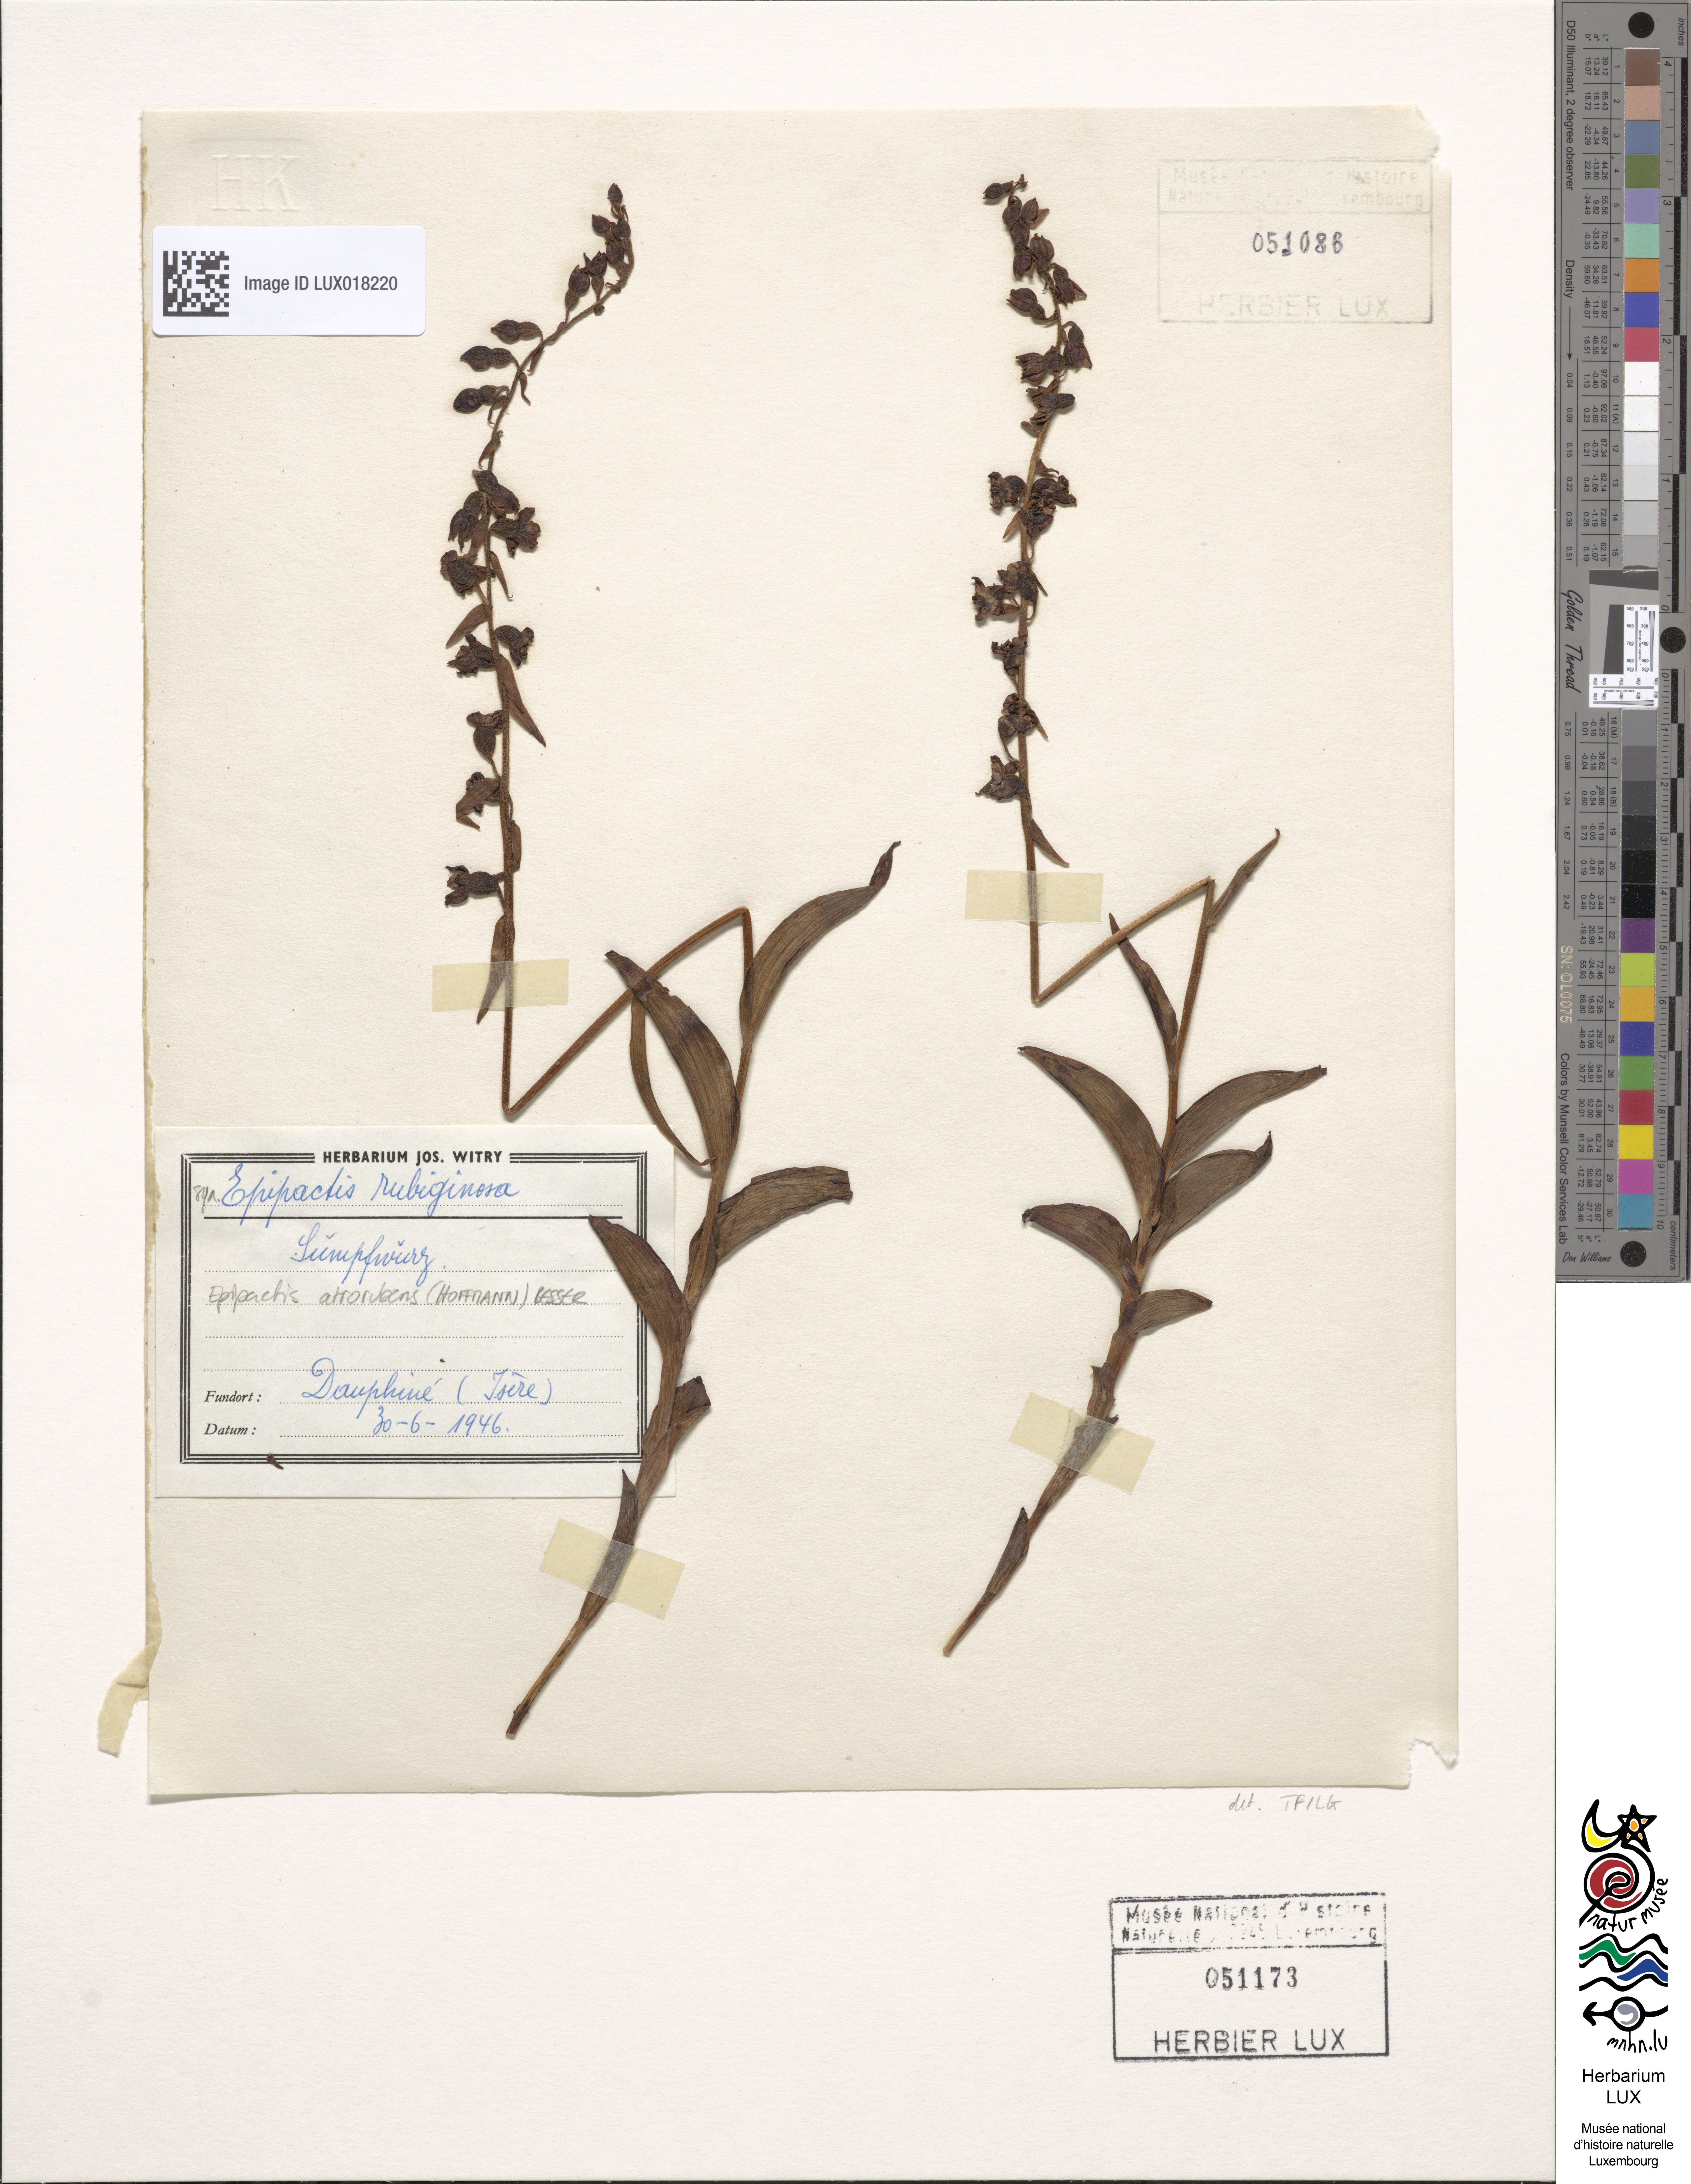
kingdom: Plantae
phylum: Tracheophyta
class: Liliopsida
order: Asparagales
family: Orchidaceae
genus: Epipactis
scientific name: Epipactis atrorubens
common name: Dark-red helleborine
